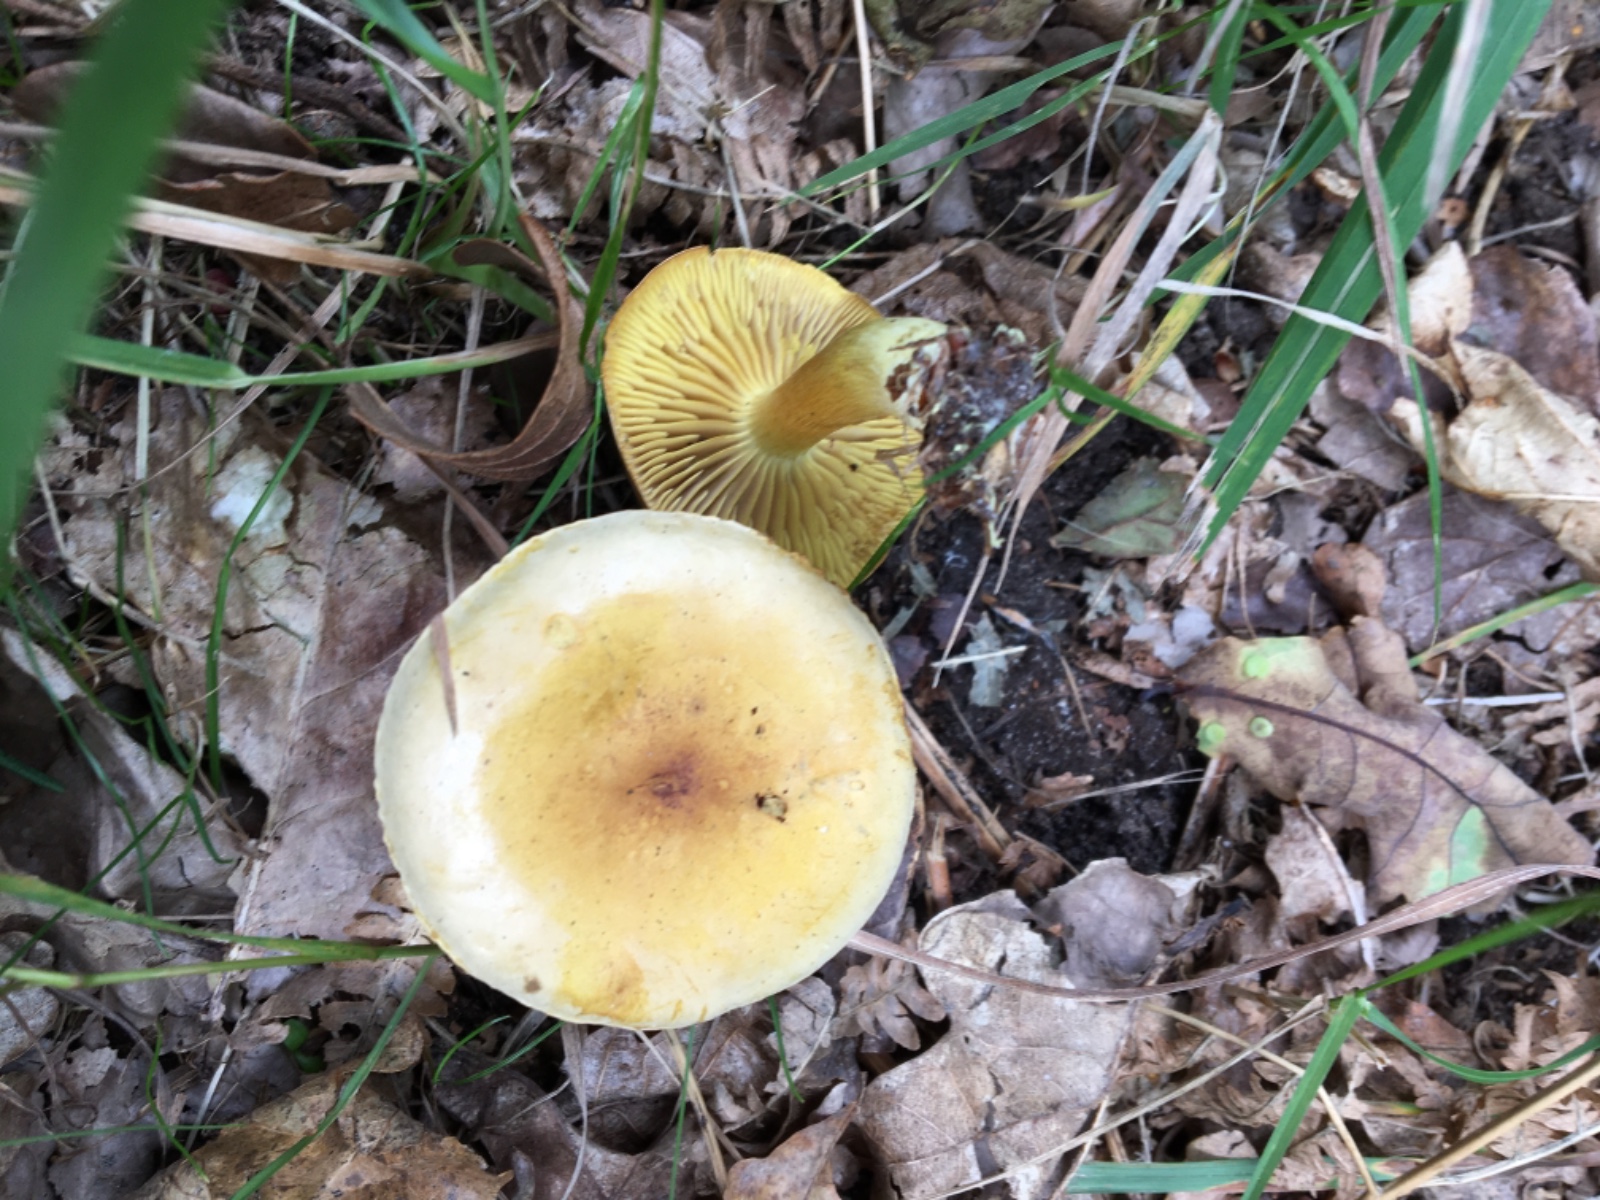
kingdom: Fungi
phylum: Basidiomycota
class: Agaricomycetes
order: Agaricales
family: Tricholomataceae
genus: Tricholoma
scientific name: Tricholoma sulphureum
